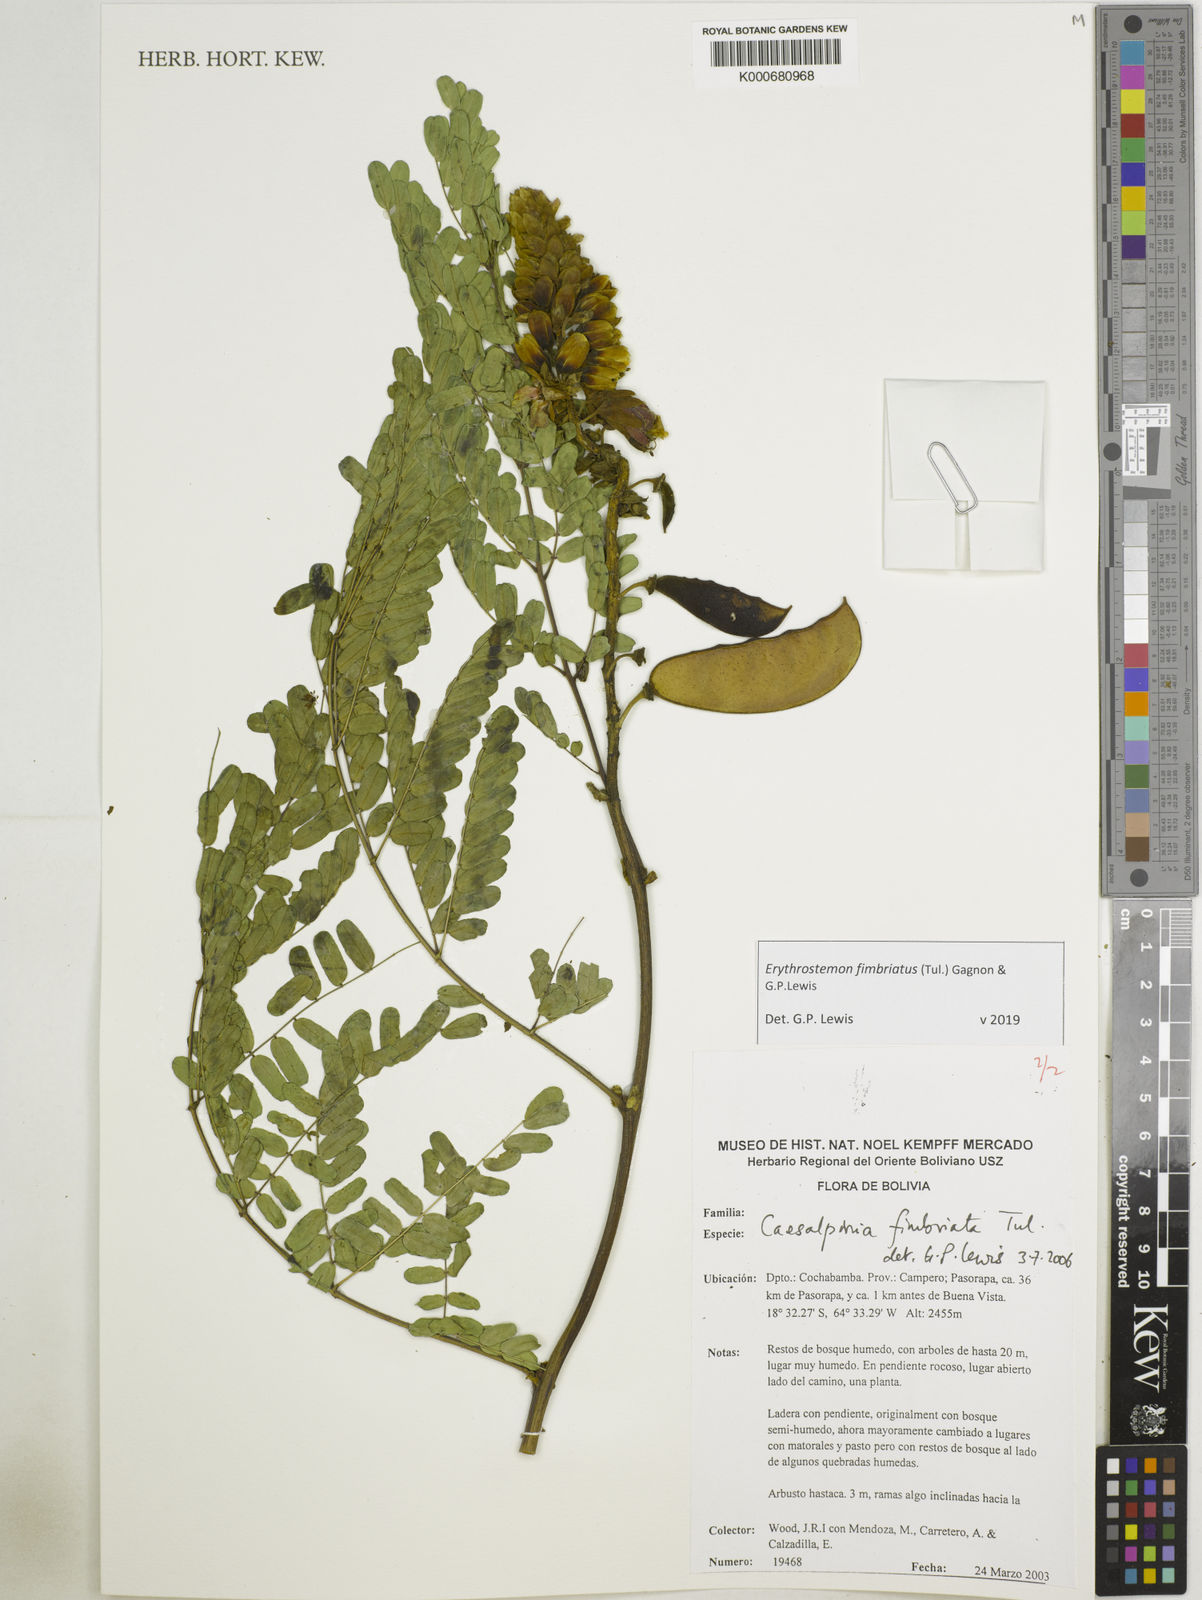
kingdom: Plantae
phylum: Tracheophyta
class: Magnoliopsida
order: Fabales
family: Fabaceae
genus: Erythrostemon
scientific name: Erythrostemon fimbriatus
